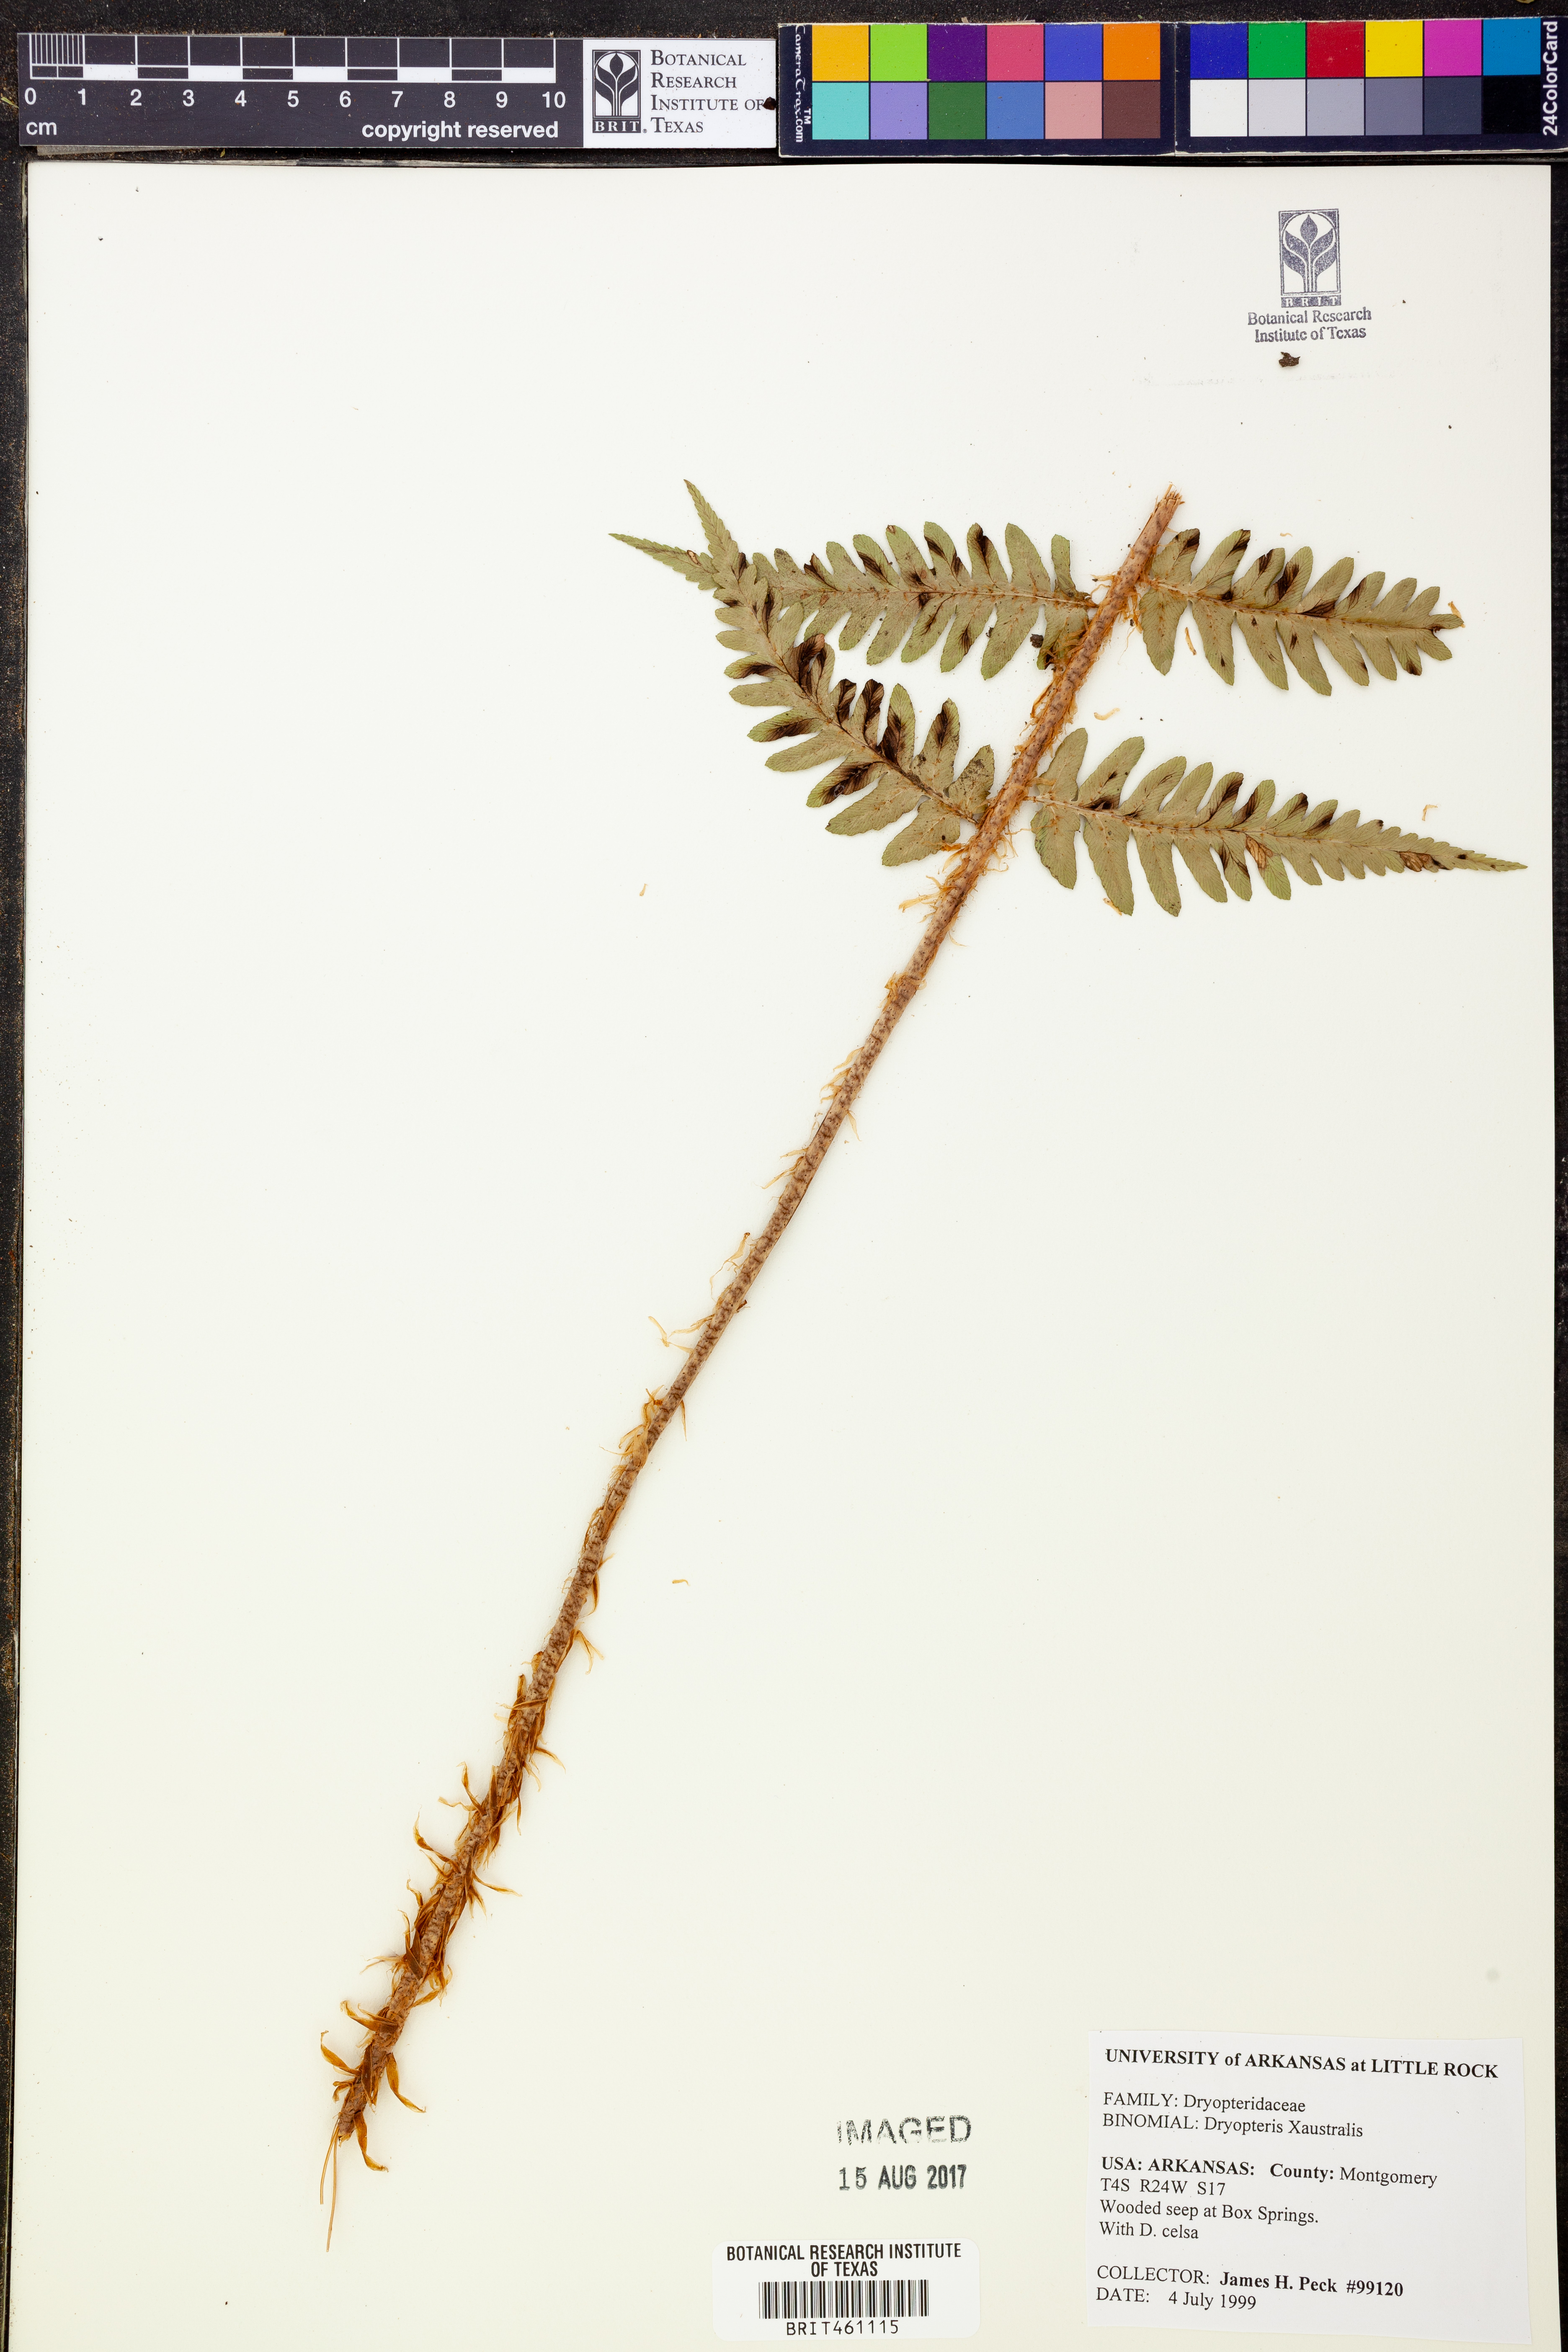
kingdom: Plantae
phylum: Tracheophyta
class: Polypodiopsida
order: Polypodiales
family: Dryopteridaceae
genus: Dryopteris
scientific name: Dryopteris
